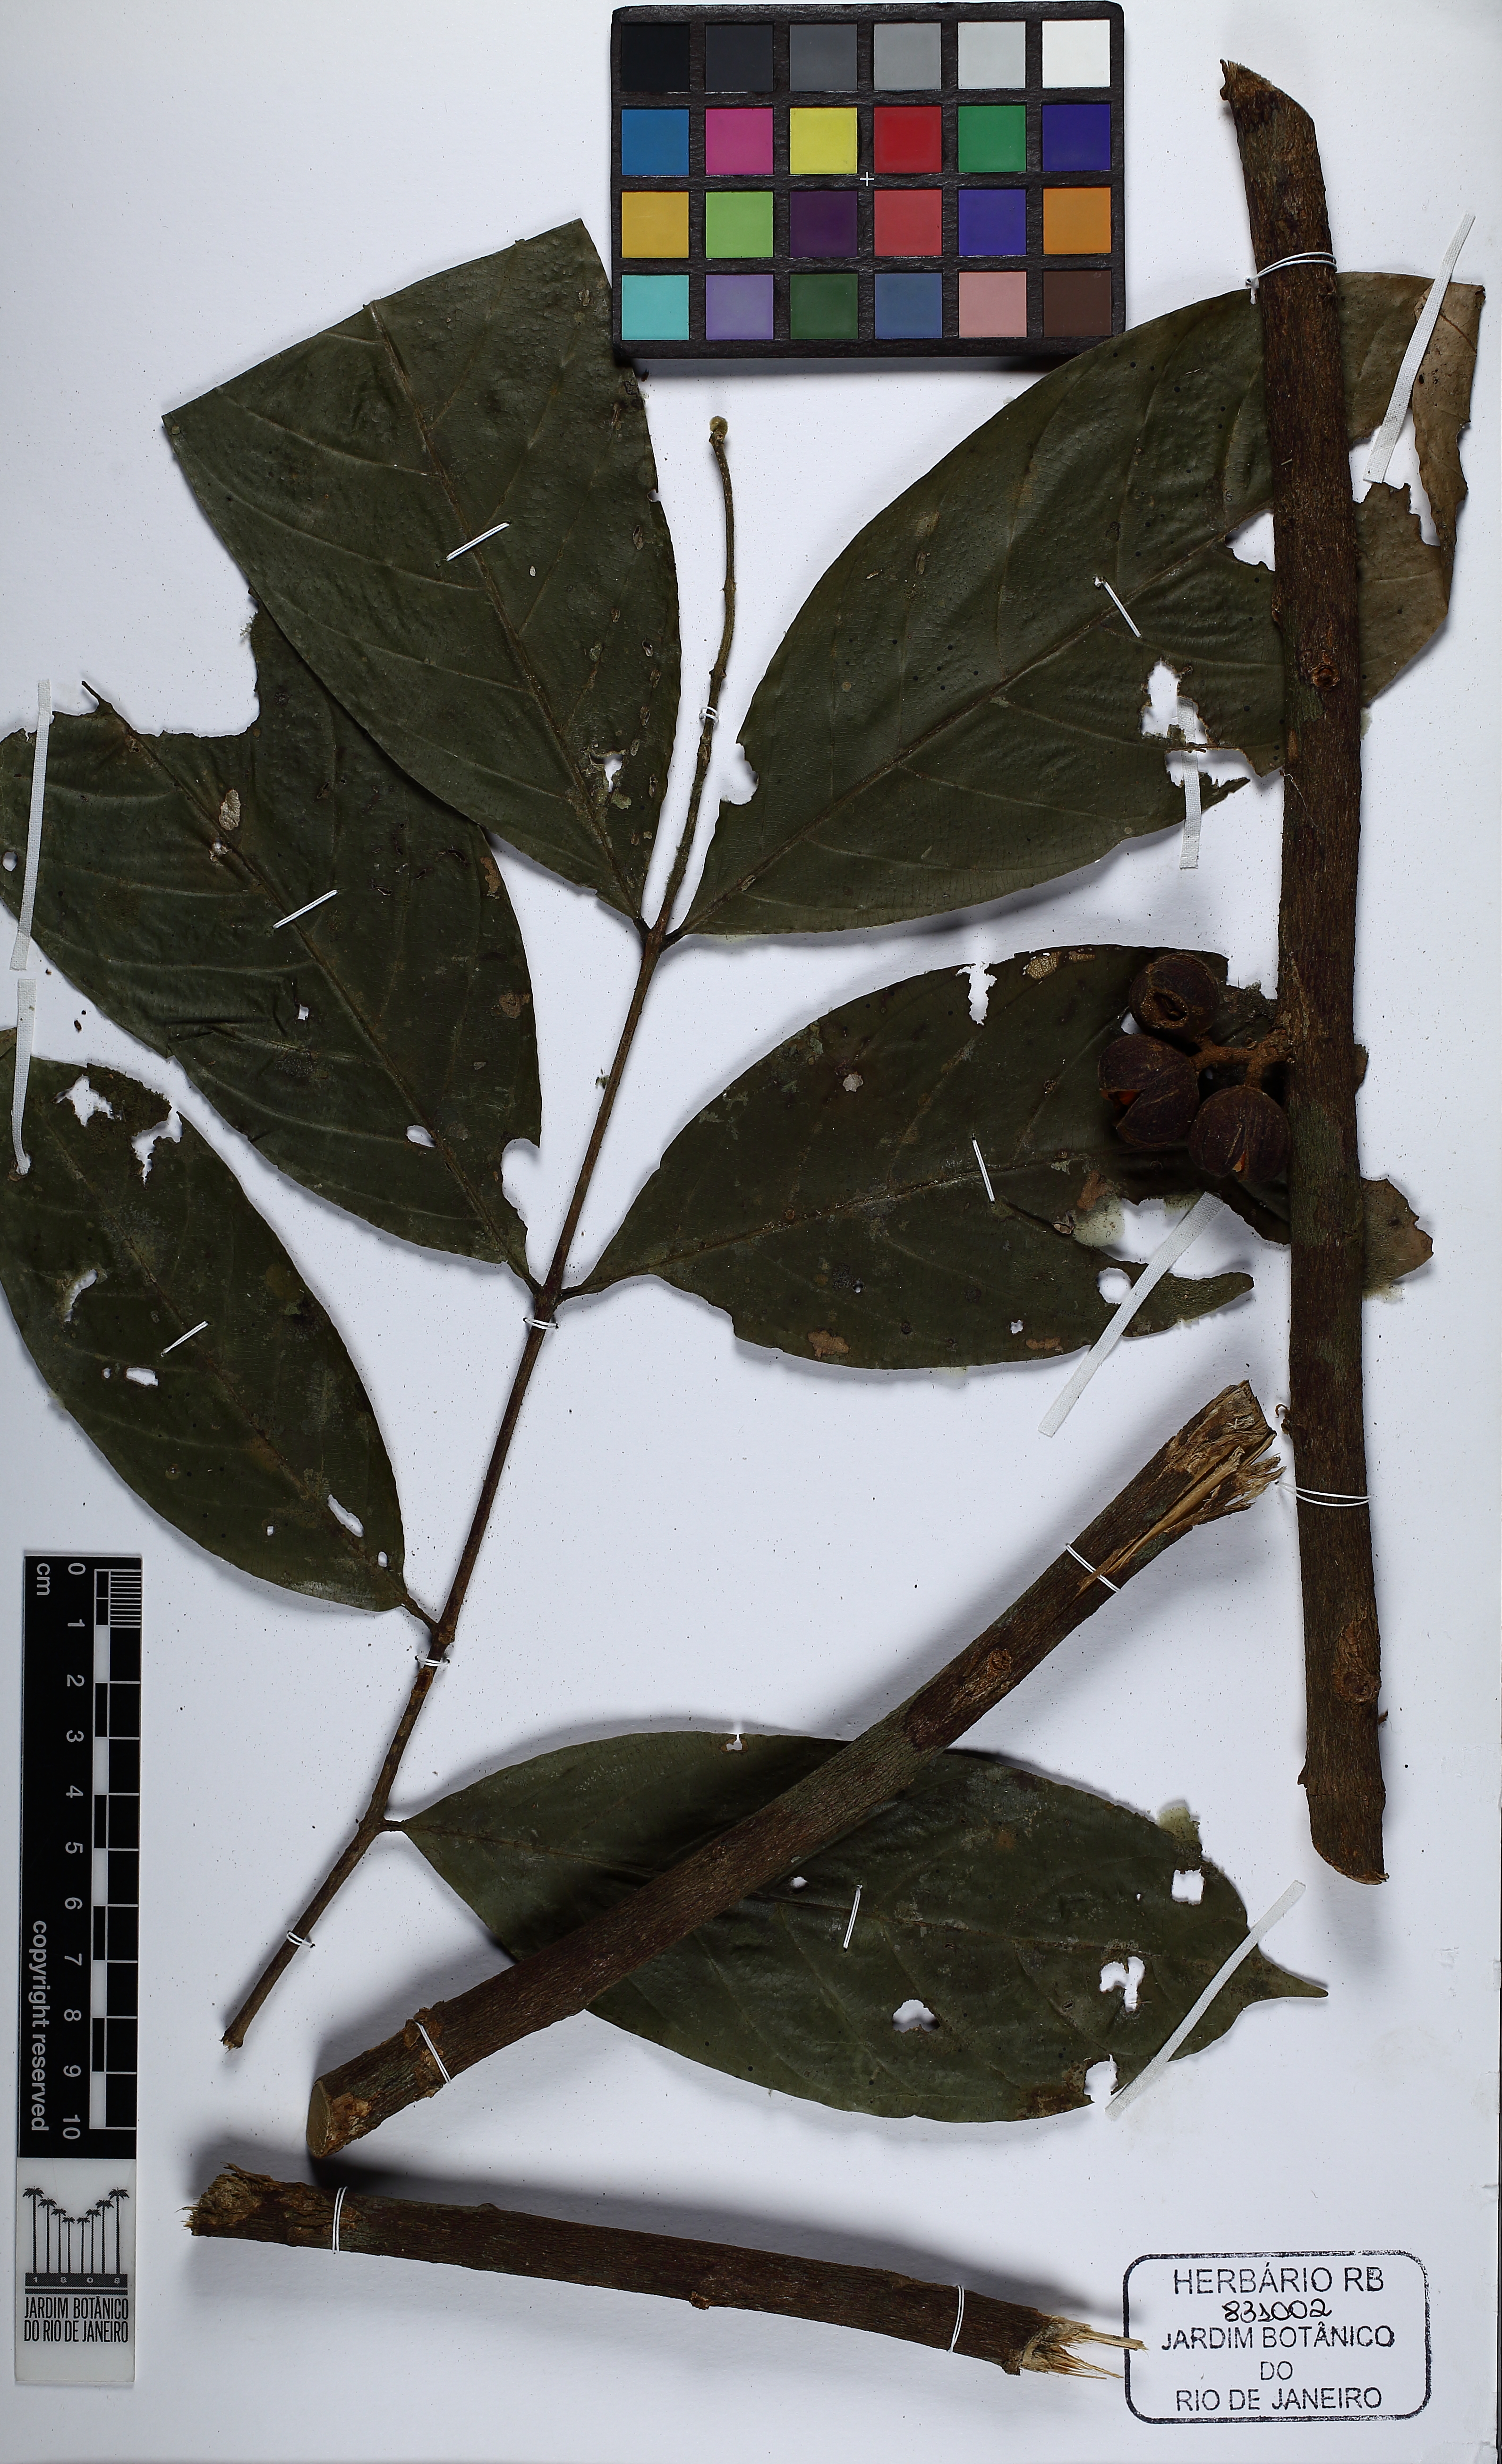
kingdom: Plantae
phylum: Tracheophyta
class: Magnoliopsida
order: Sapindales
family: Meliaceae
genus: Guarea
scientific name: Guarea
